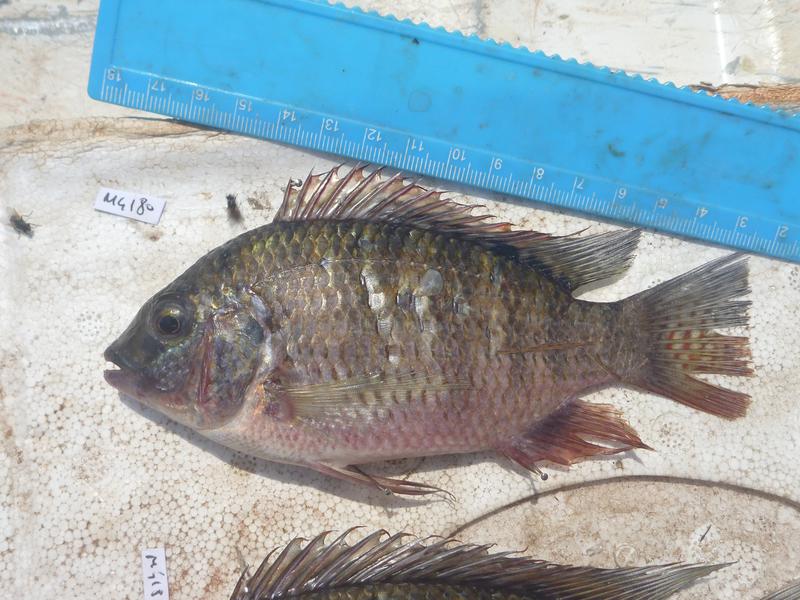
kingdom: Animalia
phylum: Chordata
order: Perciformes
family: Cichlidae
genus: Coptodon
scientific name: Coptodon rendalli
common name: Redbreast tilapia
